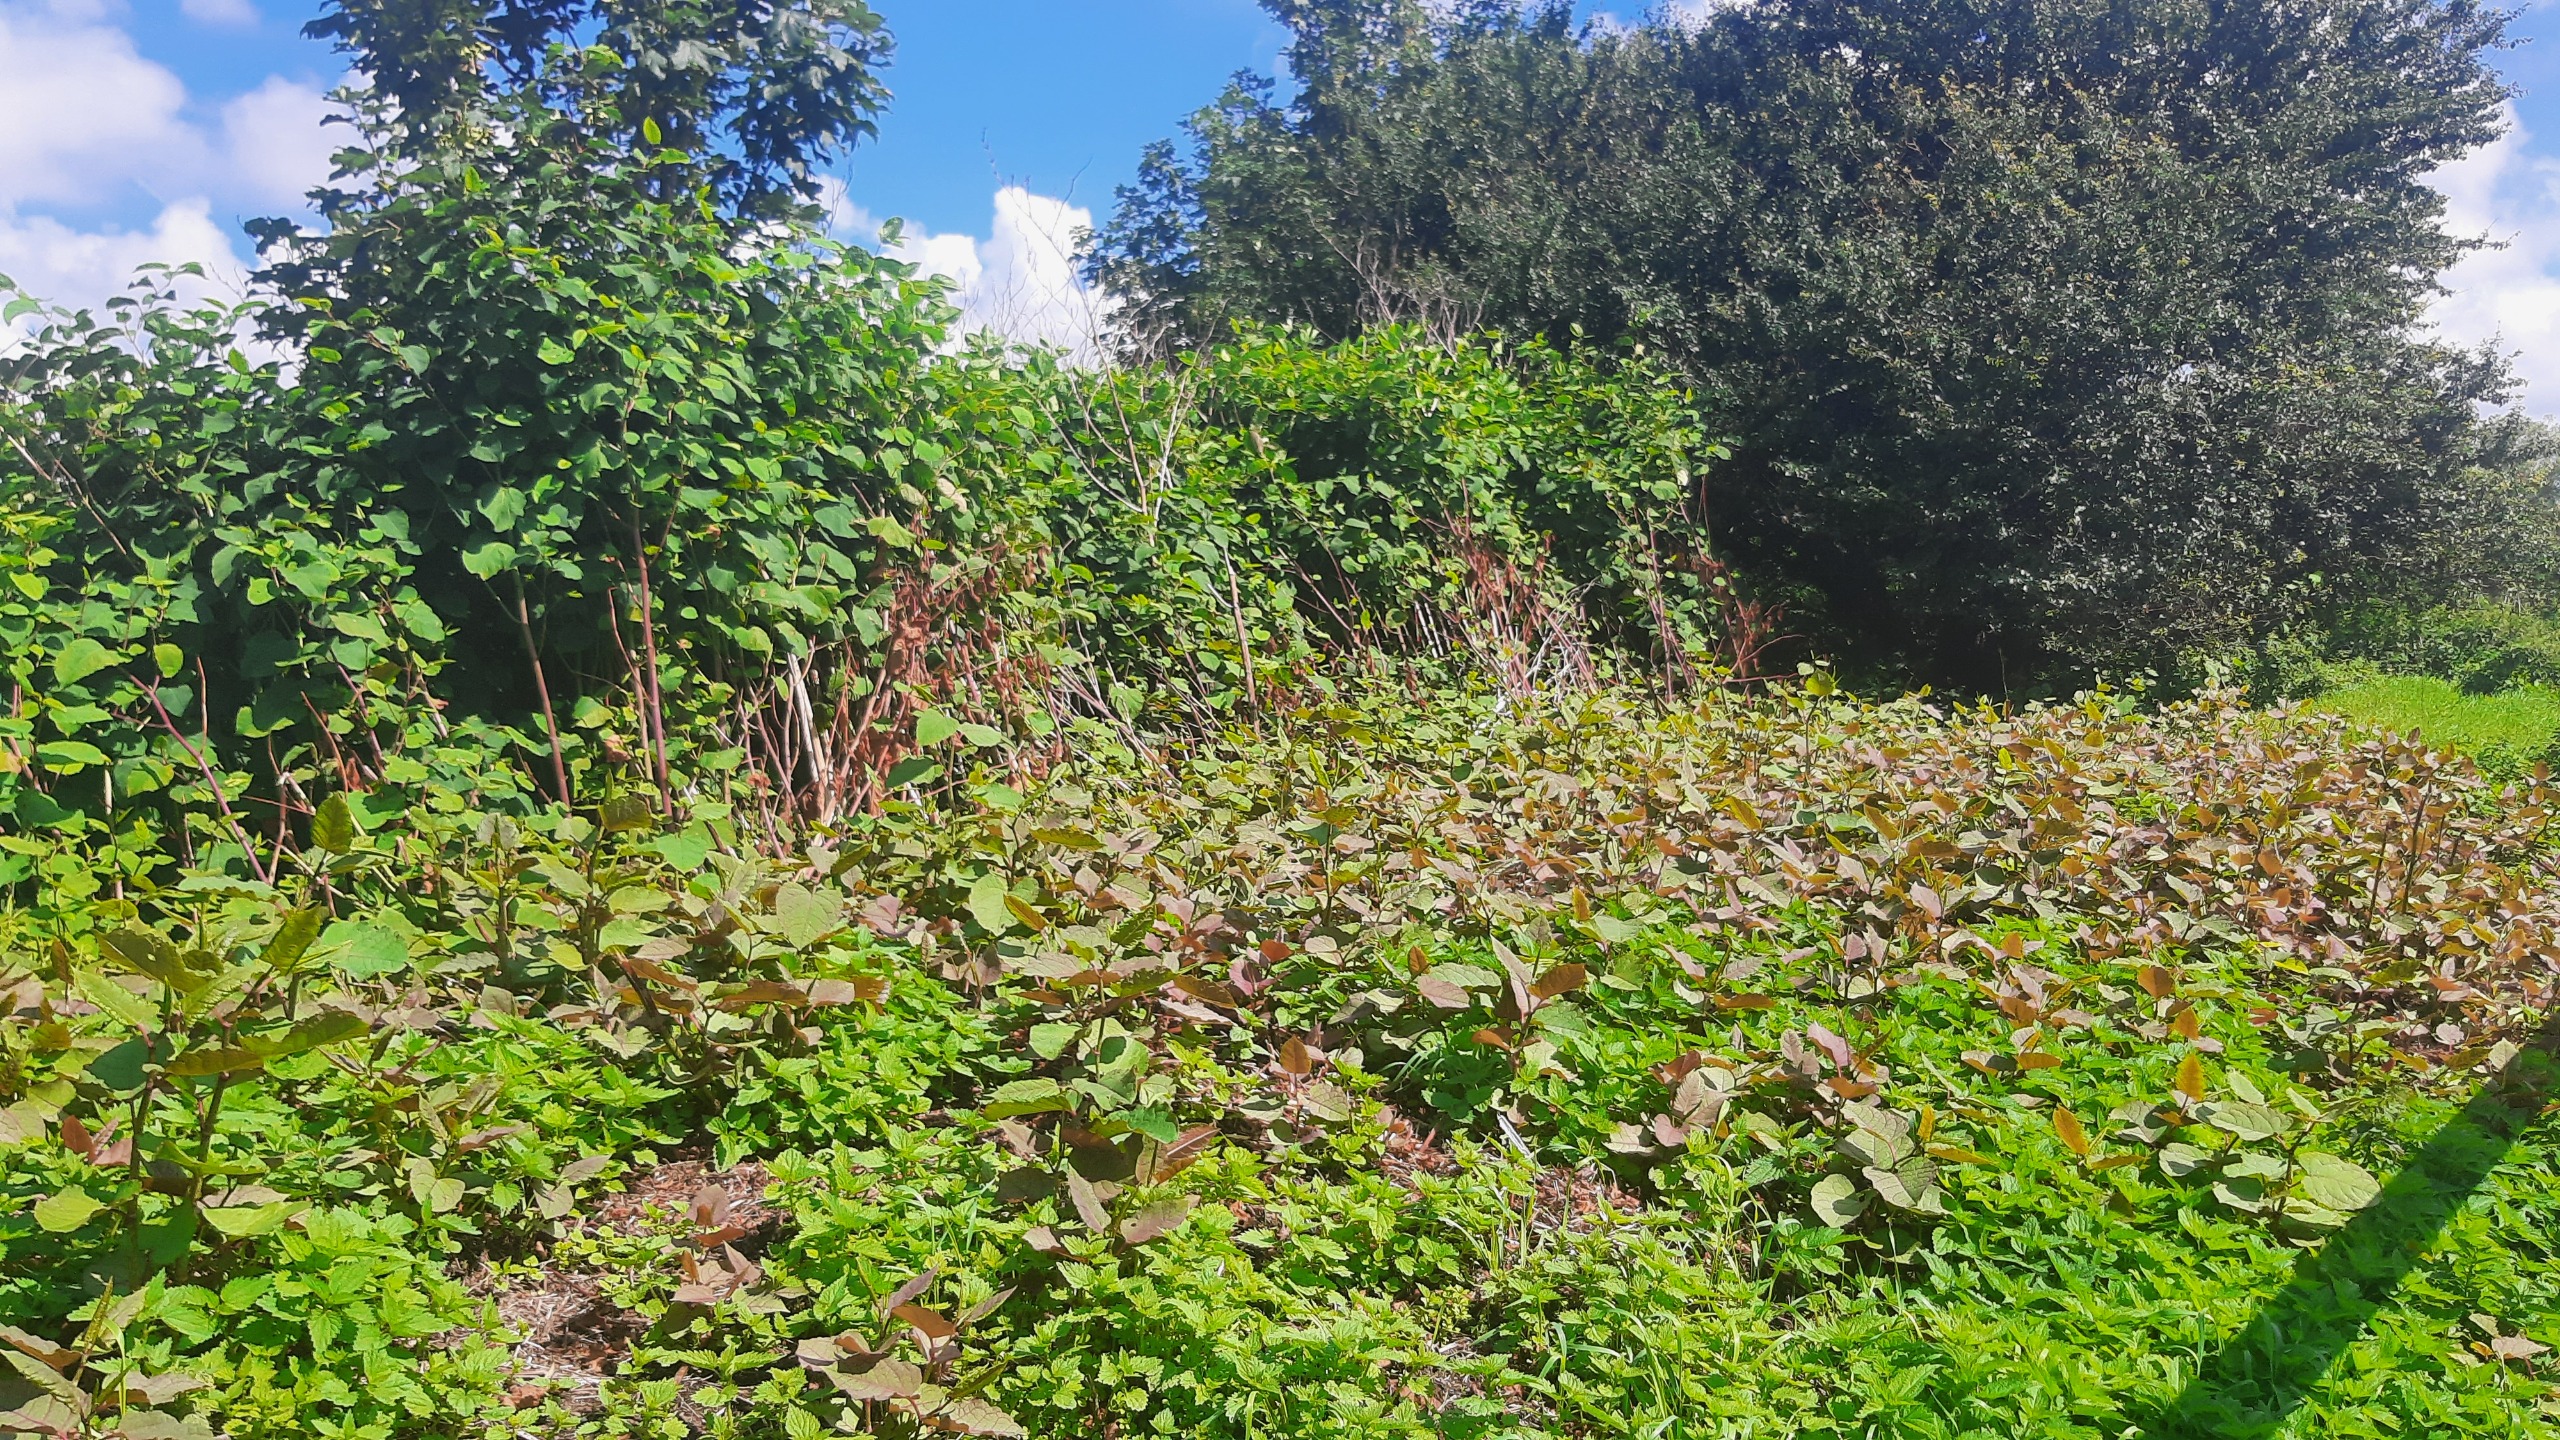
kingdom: Plantae
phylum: Tracheophyta
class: Magnoliopsida
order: Caryophyllales
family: Polygonaceae
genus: Reynoutria
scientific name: Reynoutria bohemica
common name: Hybrid-pileurt
